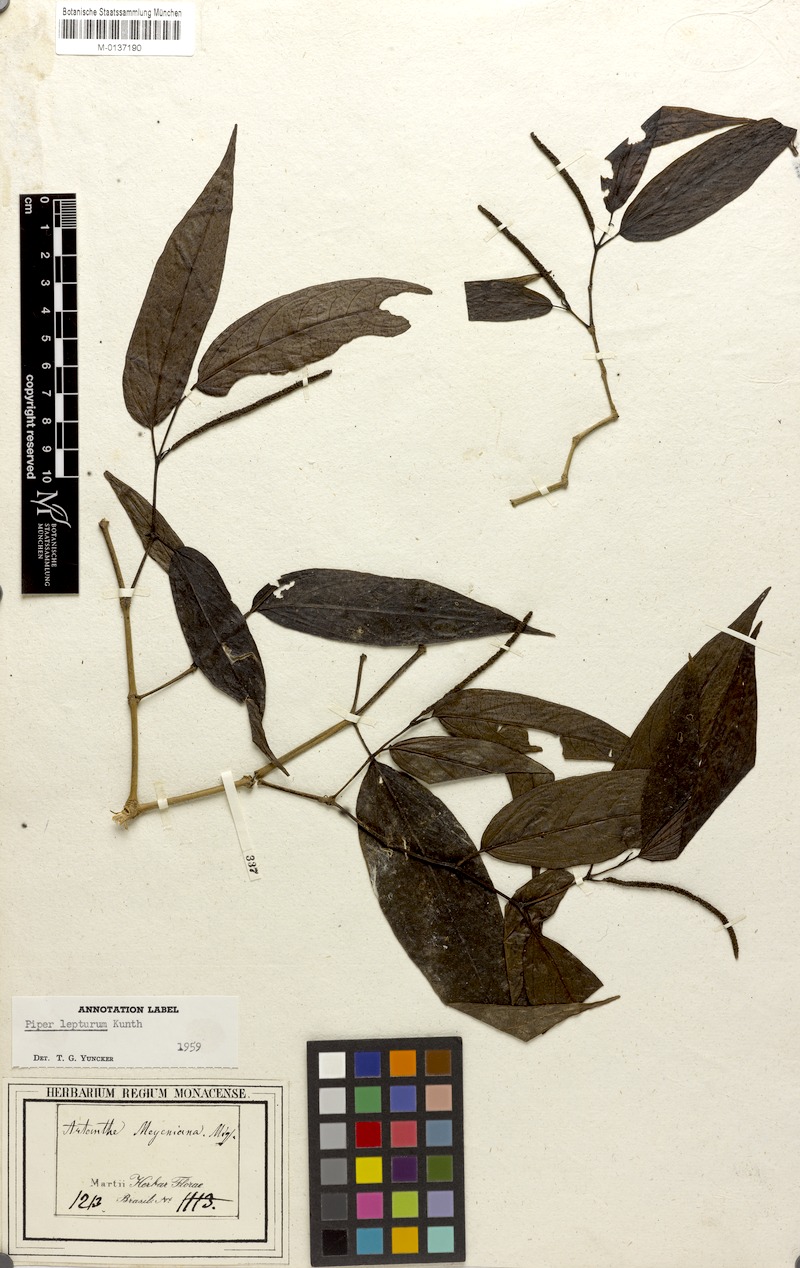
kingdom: Plantae
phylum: Tracheophyta
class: Magnoliopsida
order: Piperales
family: Piperaceae
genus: Piper
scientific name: Piper lepturum
